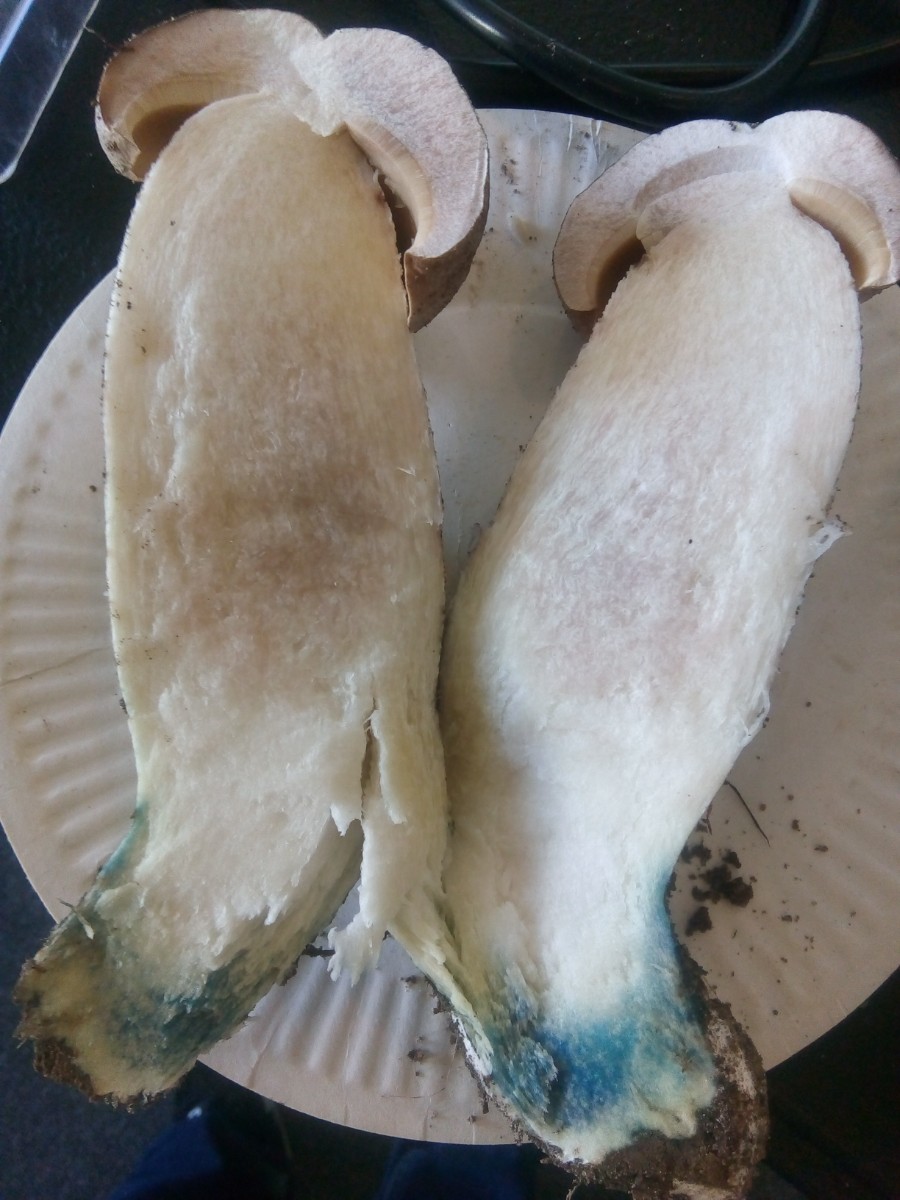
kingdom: Fungi
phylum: Basidiomycota
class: Agaricomycetes
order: Boletales
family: Boletaceae
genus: Leccinum
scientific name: Leccinum duriusculum
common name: poppel-skælrørhat
